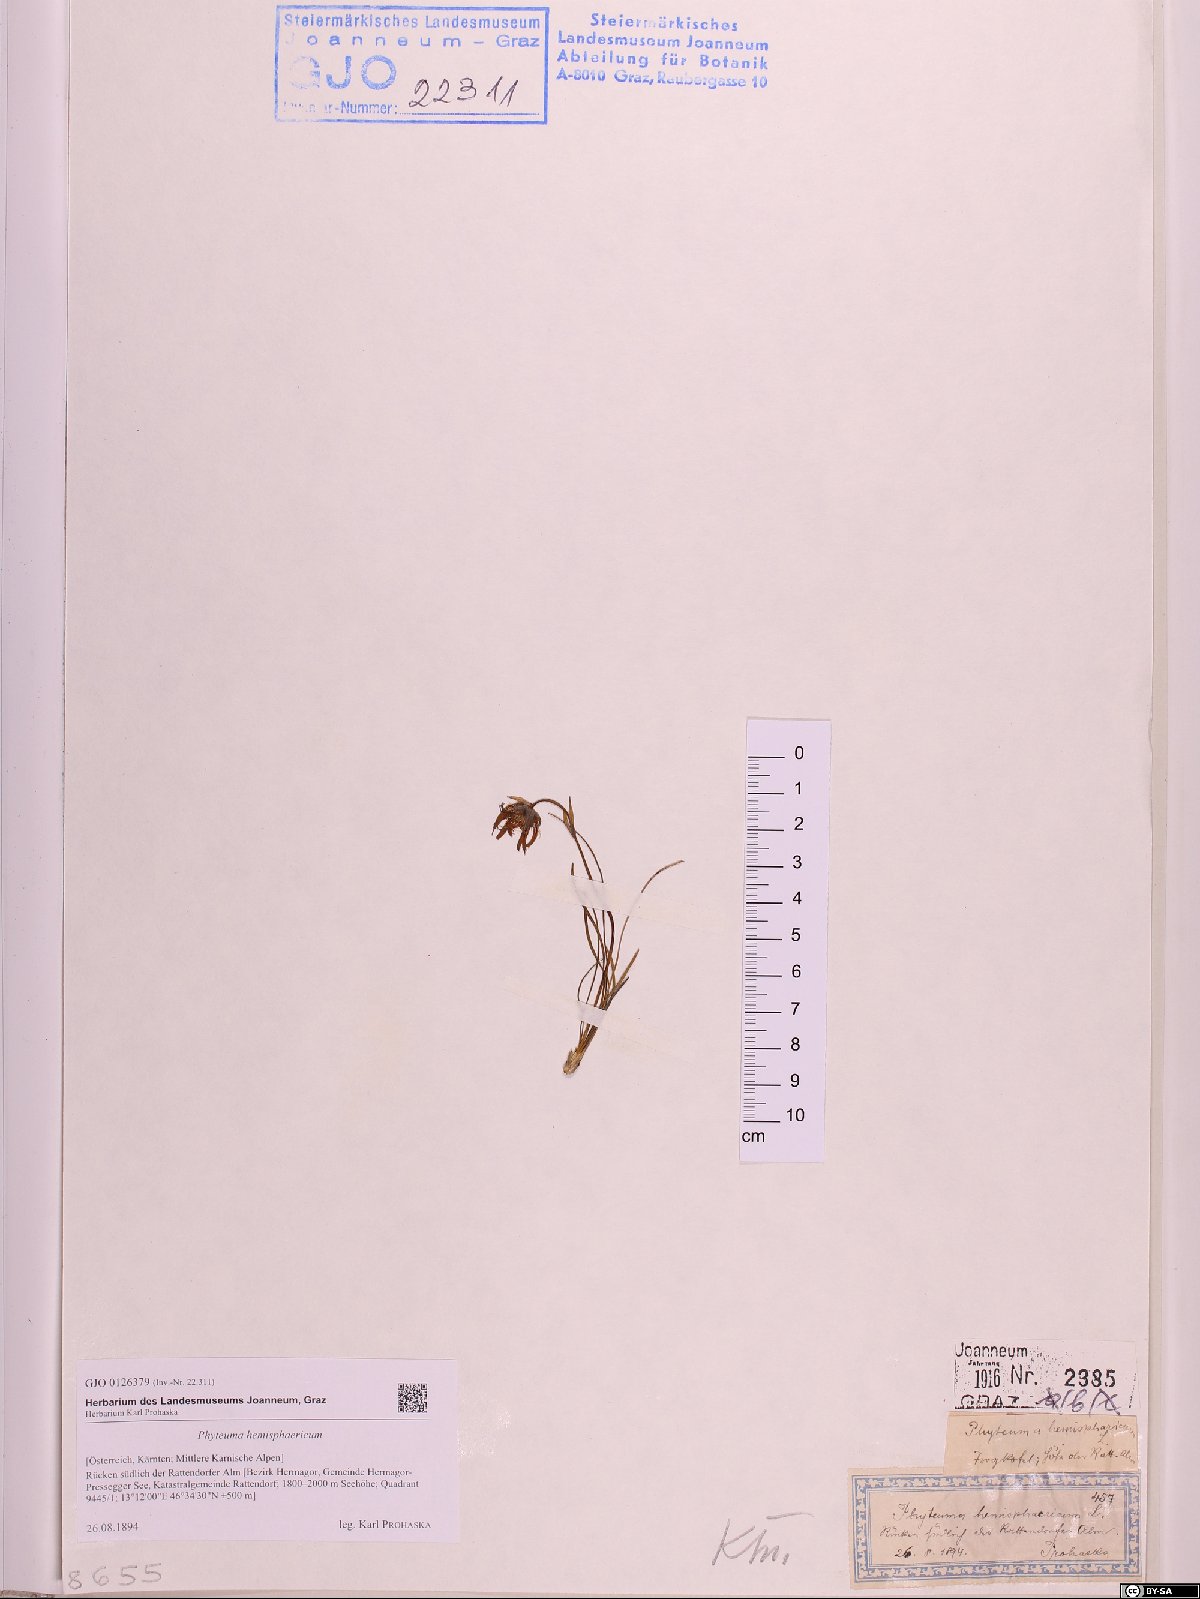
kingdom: Plantae
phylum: Tracheophyta
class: Magnoliopsida
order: Asterales
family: Campanulaceae
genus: Phyteuma
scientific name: Phyteuma hemisphaericum
